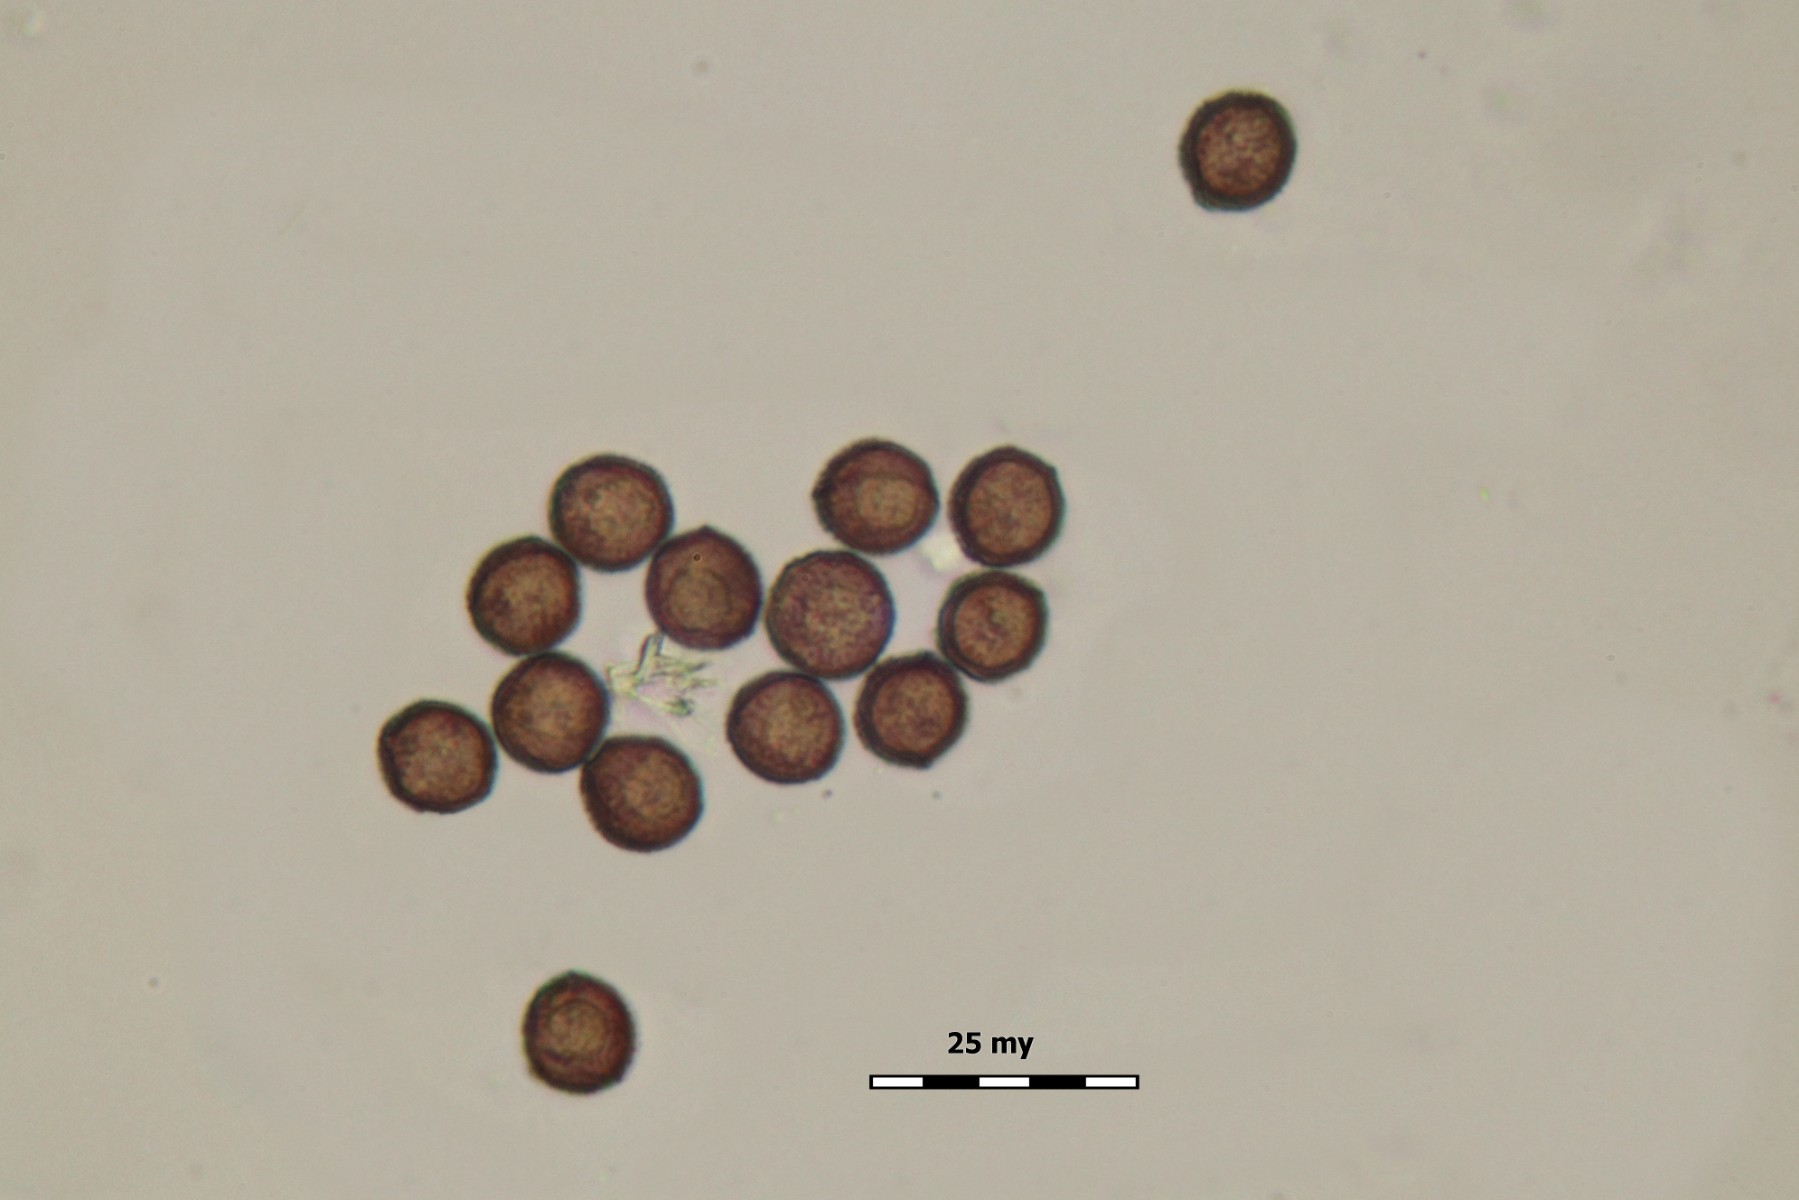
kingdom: Protozoa
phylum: Mycetozoa
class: Myxomycetes
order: Physarales
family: Didymiaceae
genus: Didymium
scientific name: Didymium squamulosum
